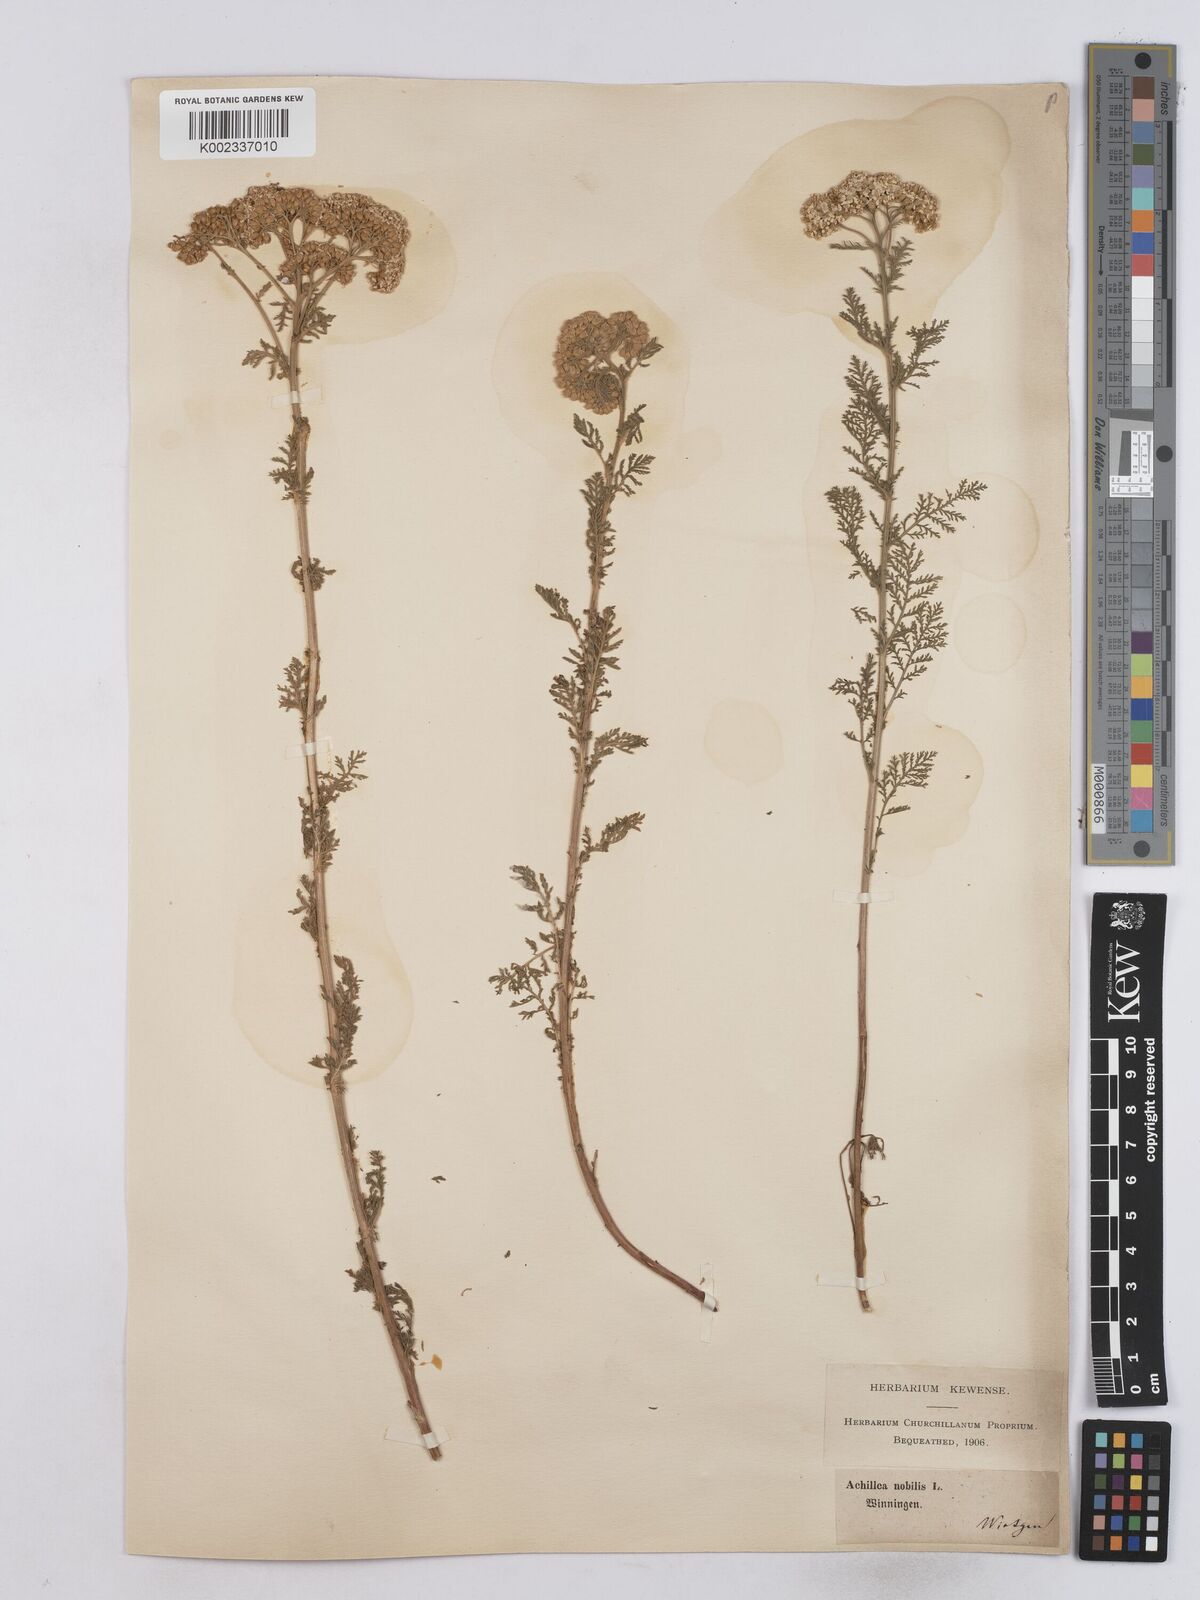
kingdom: Plantae
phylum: Tracheophyta
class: Magnoliopsida
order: Asterales
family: Asteraceae
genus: Achillea
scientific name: Achillea nobilis
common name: Noble yarrow
